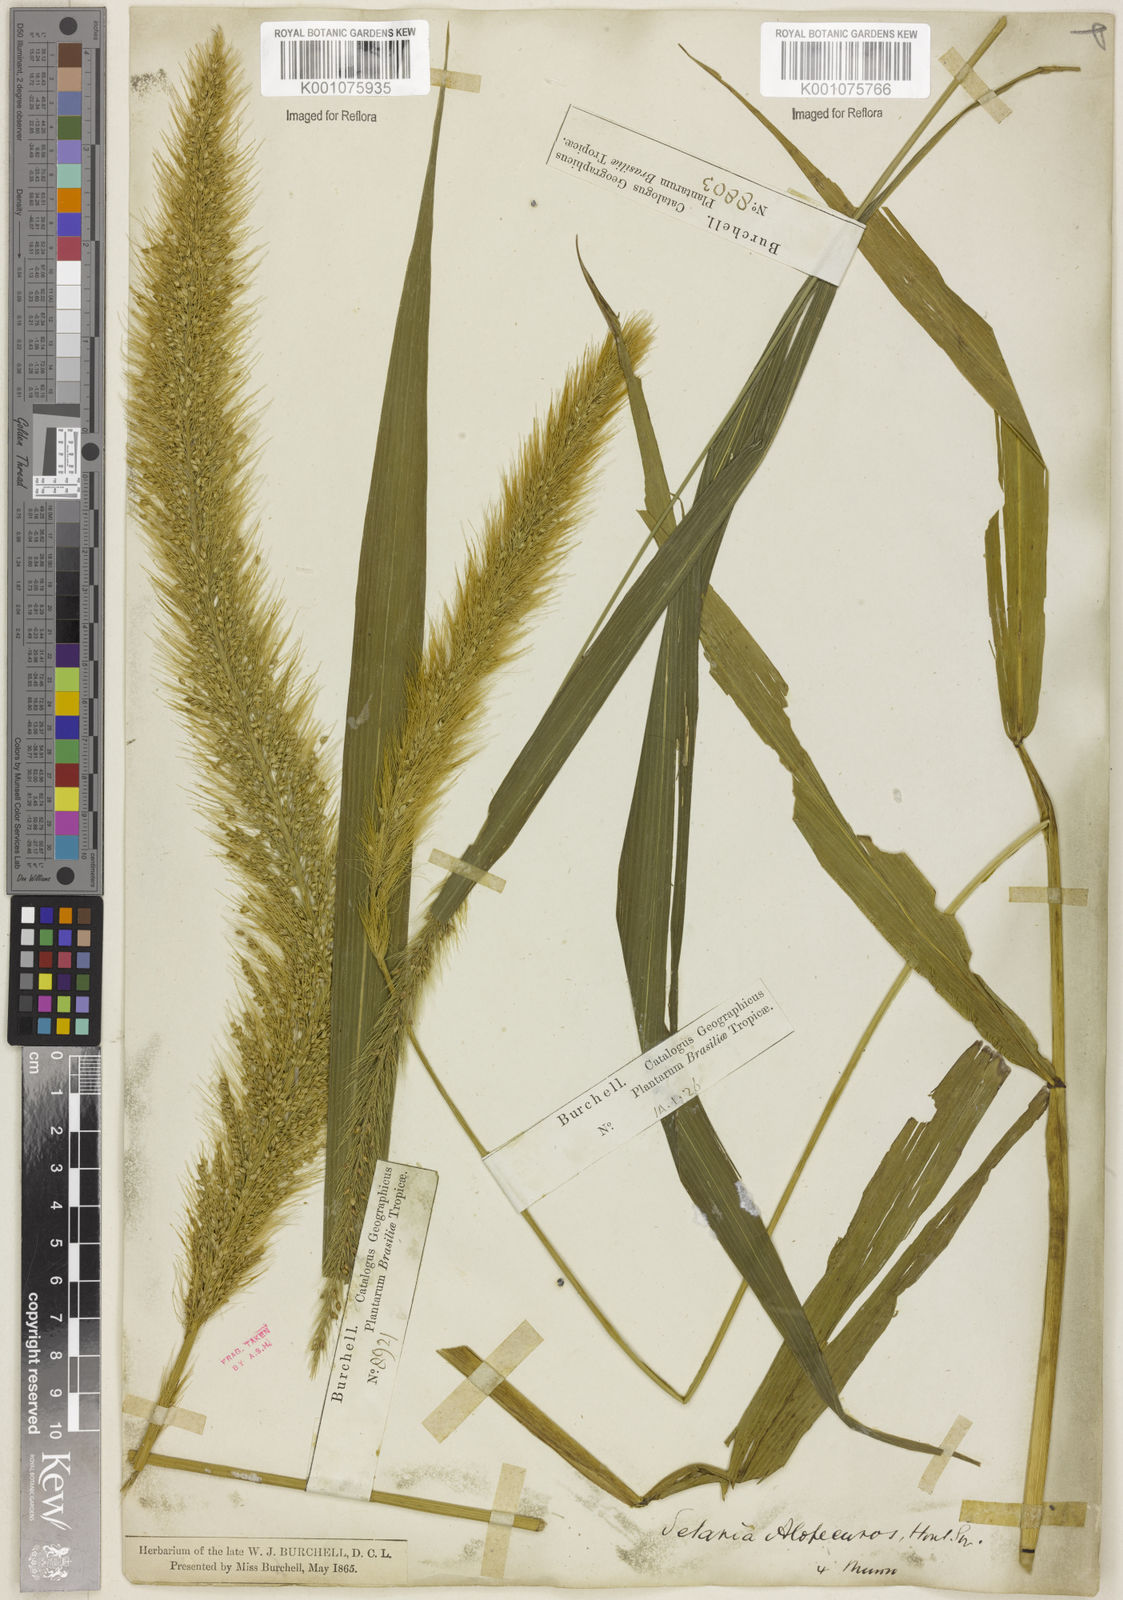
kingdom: Plantae
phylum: Tracheophyta
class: Liliopsida
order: Poales
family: Poaceae
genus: Setaria
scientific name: Setaria vulpiseta
